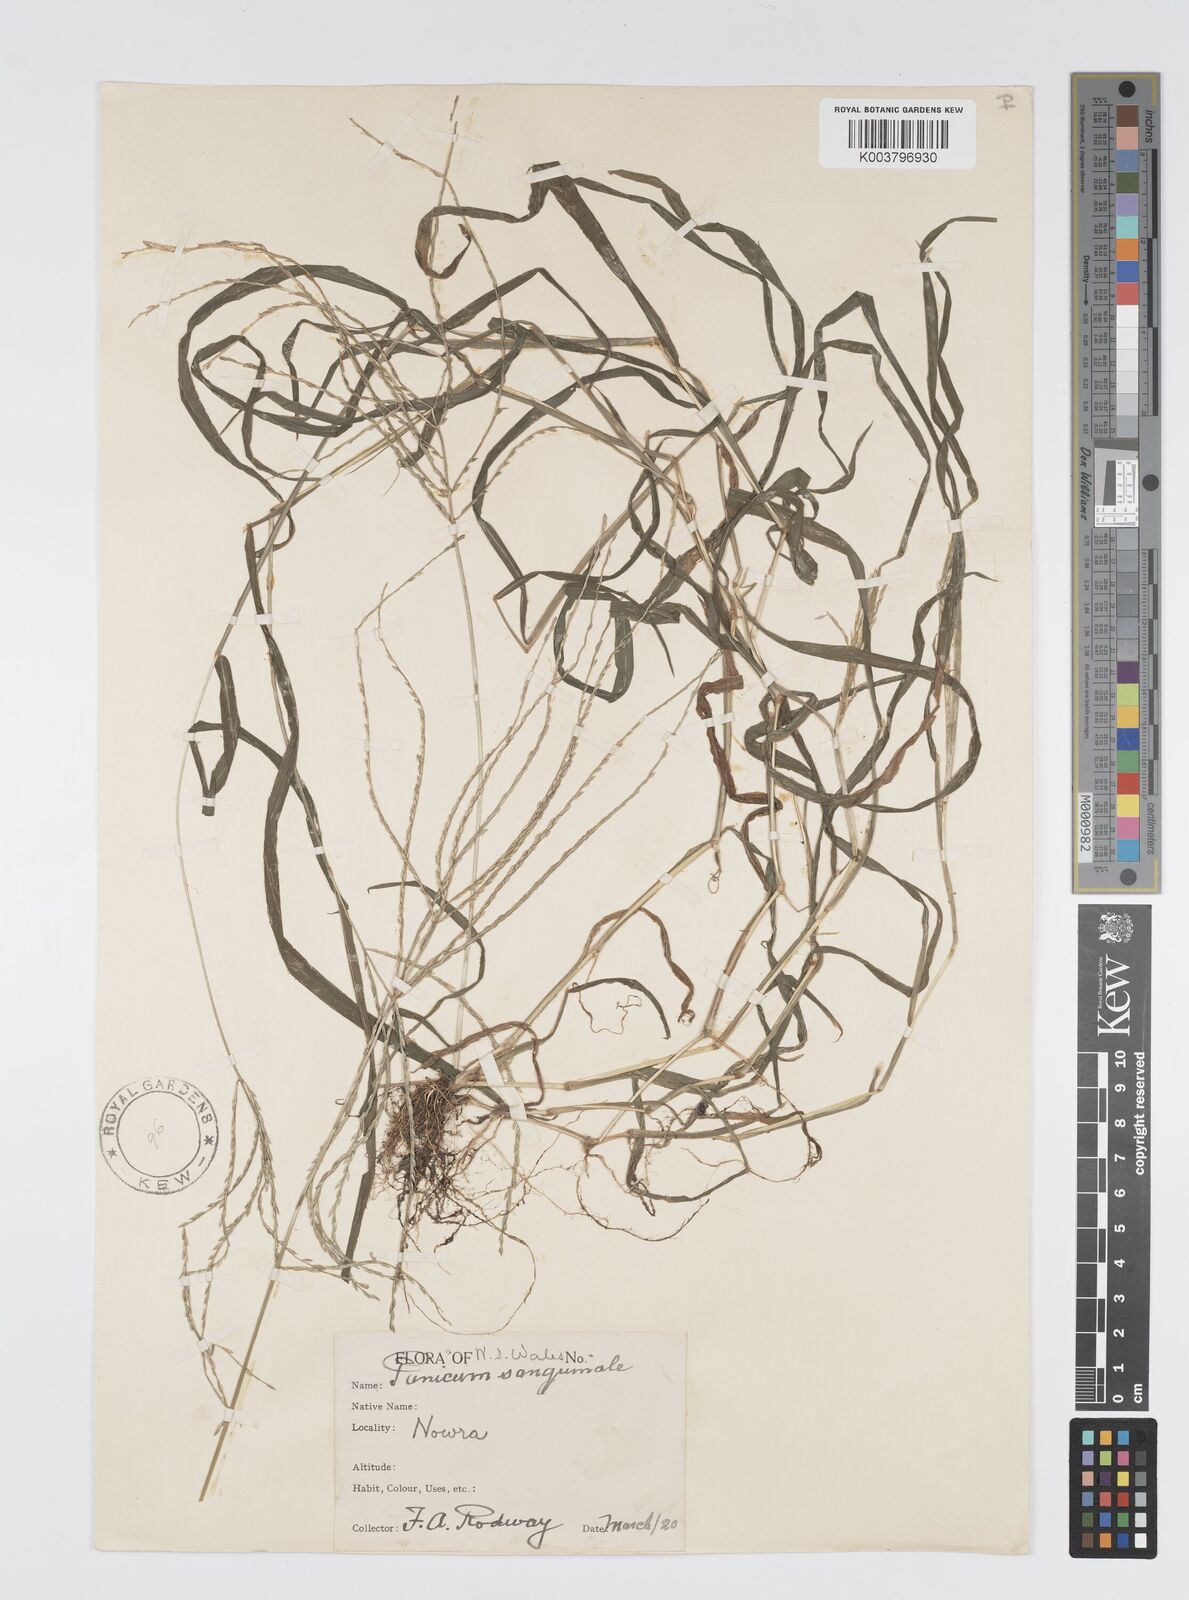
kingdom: Plantae
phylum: Tracheophyta
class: Liliopsida
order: Poales
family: Poaceae
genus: Digitaria
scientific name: Digitaria sanguinalis
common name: Hairy crabgrass
